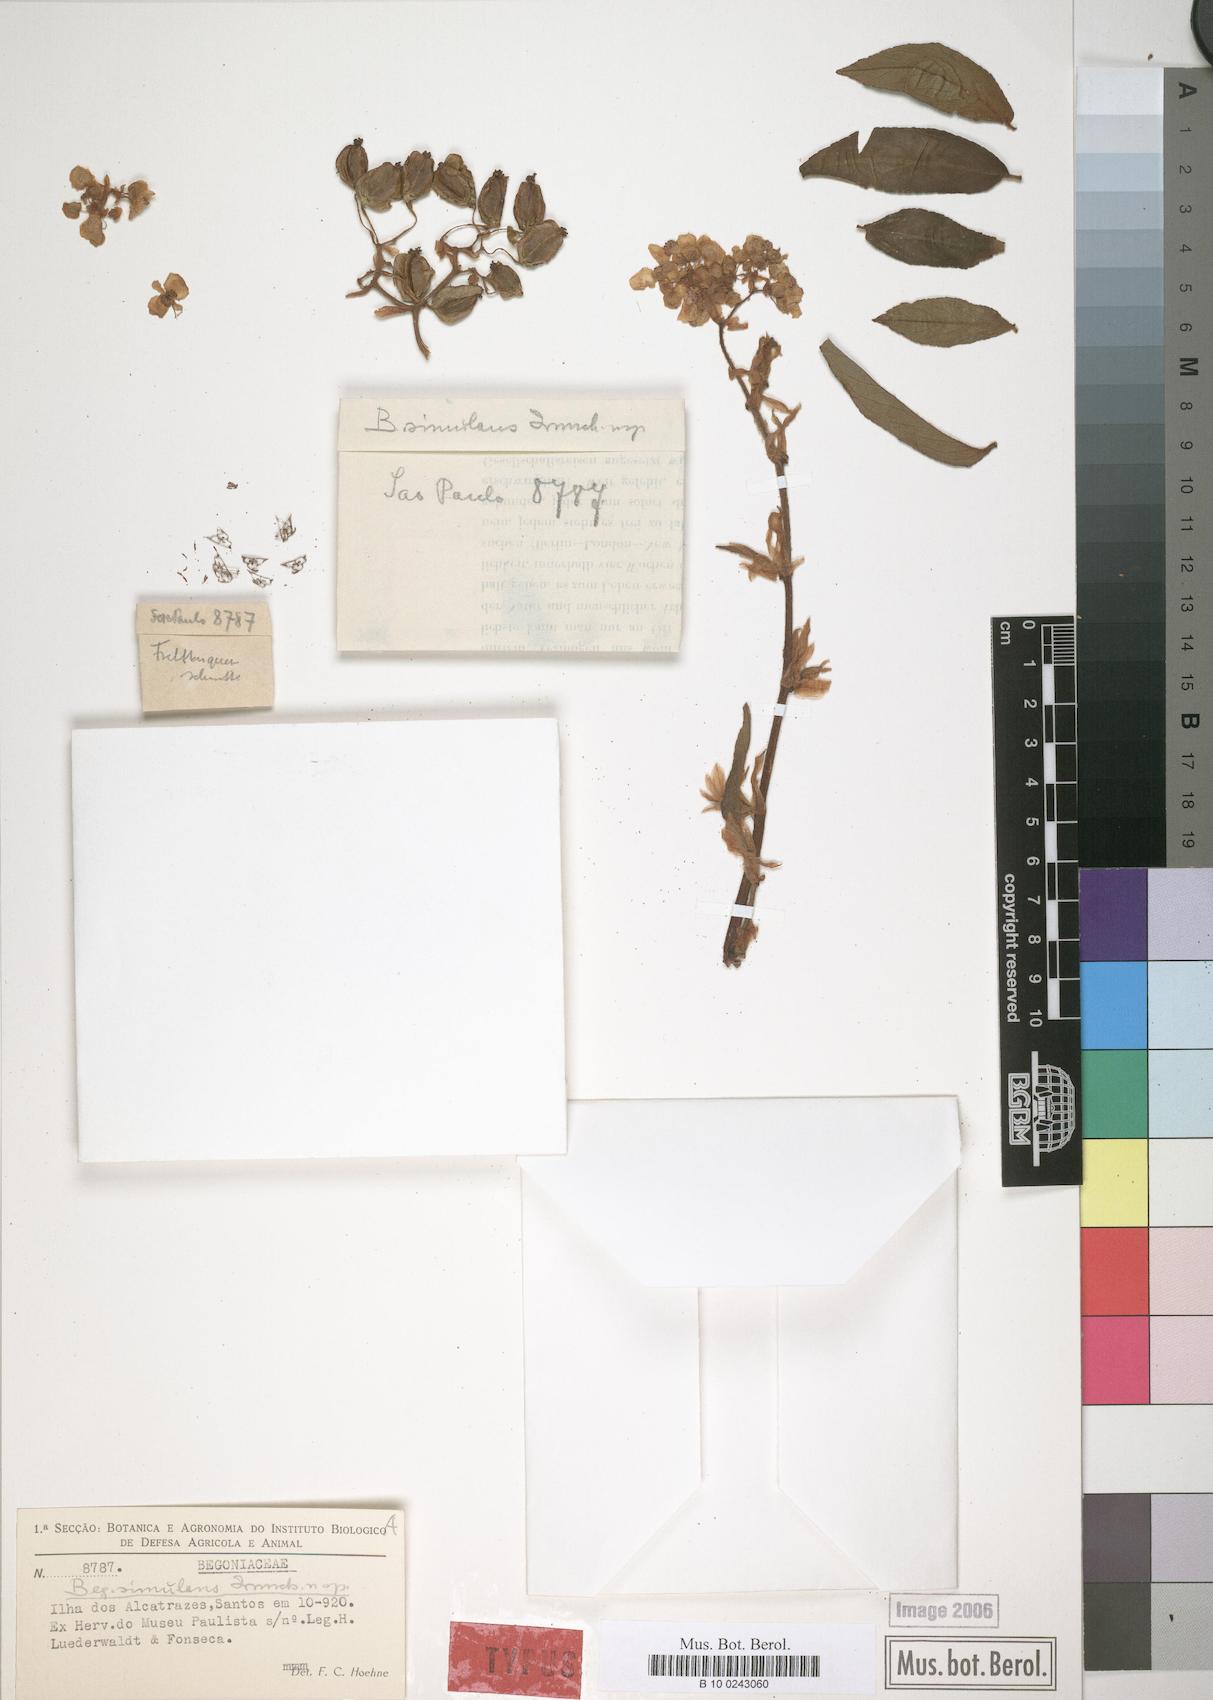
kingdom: Plantae
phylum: Tracheophyta
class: Magnoliopsida
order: Cucurbitales
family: Begoniaceae
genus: Begonia
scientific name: Begonia larorum
